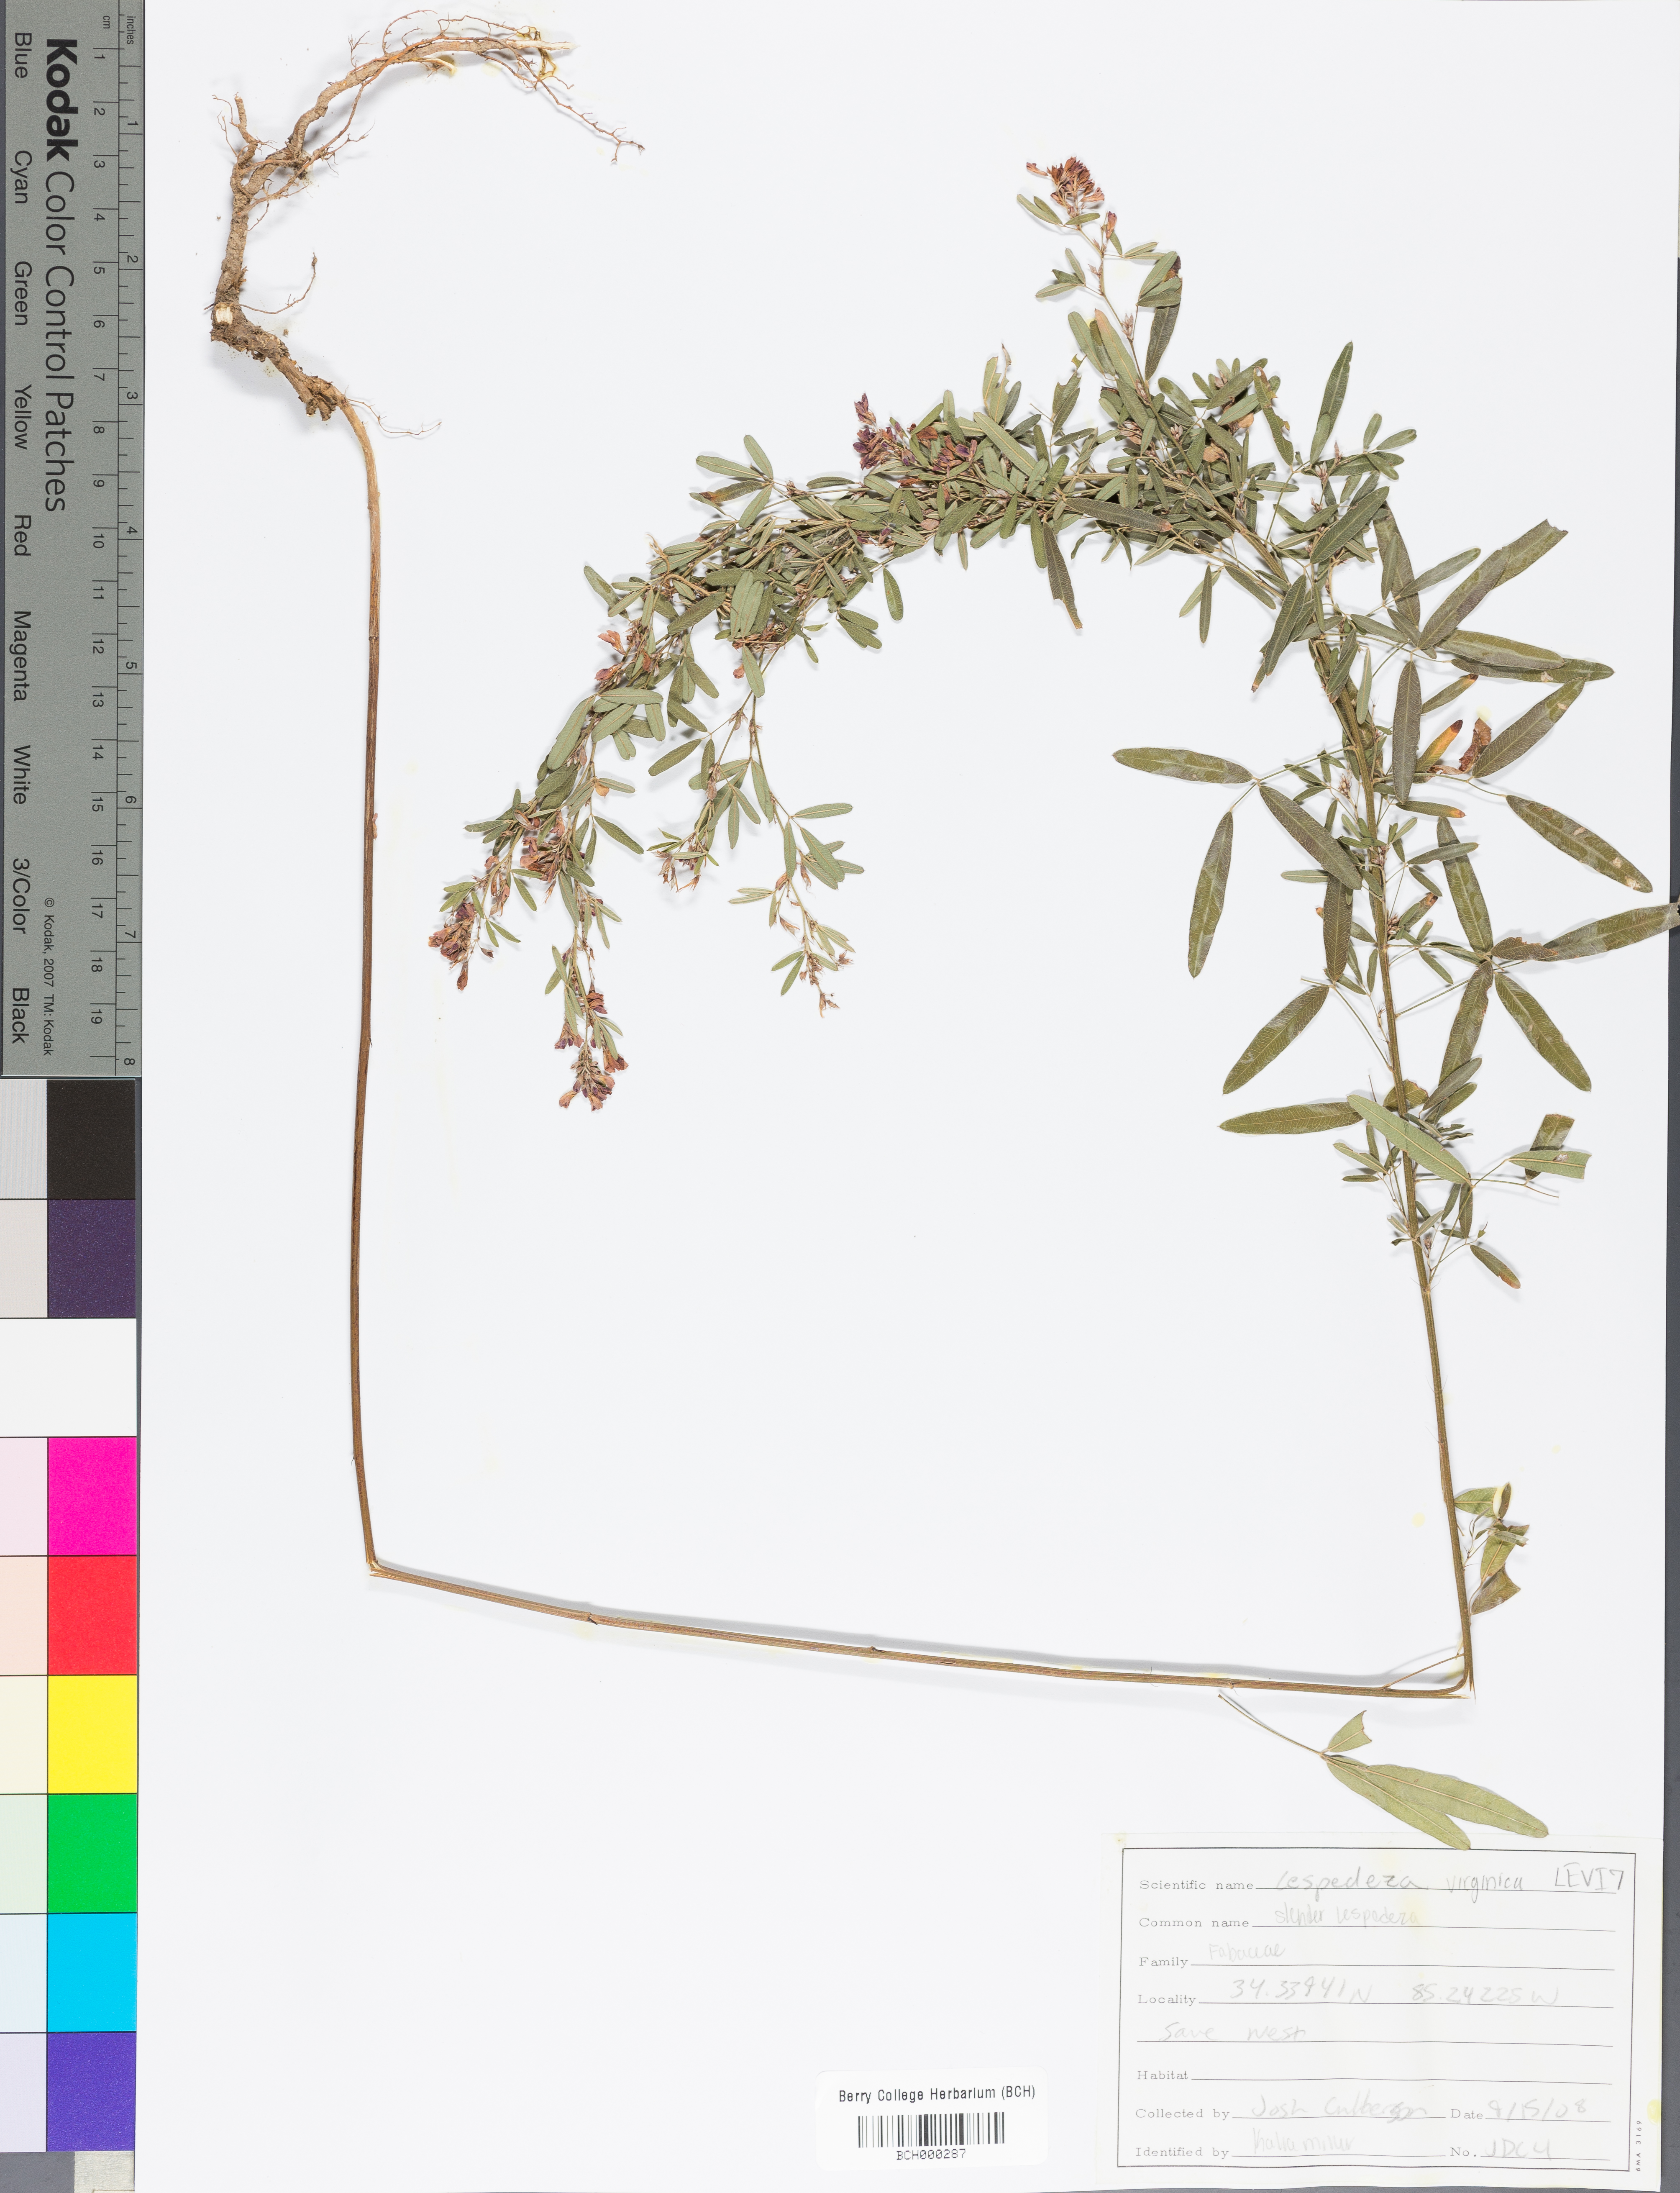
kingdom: Plantae
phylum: Tracheophyta
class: Magnoliopsida
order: Fabales
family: Fabaceae
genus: Lespedeza
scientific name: Lespedeza virginica
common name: Slender bush-clover
